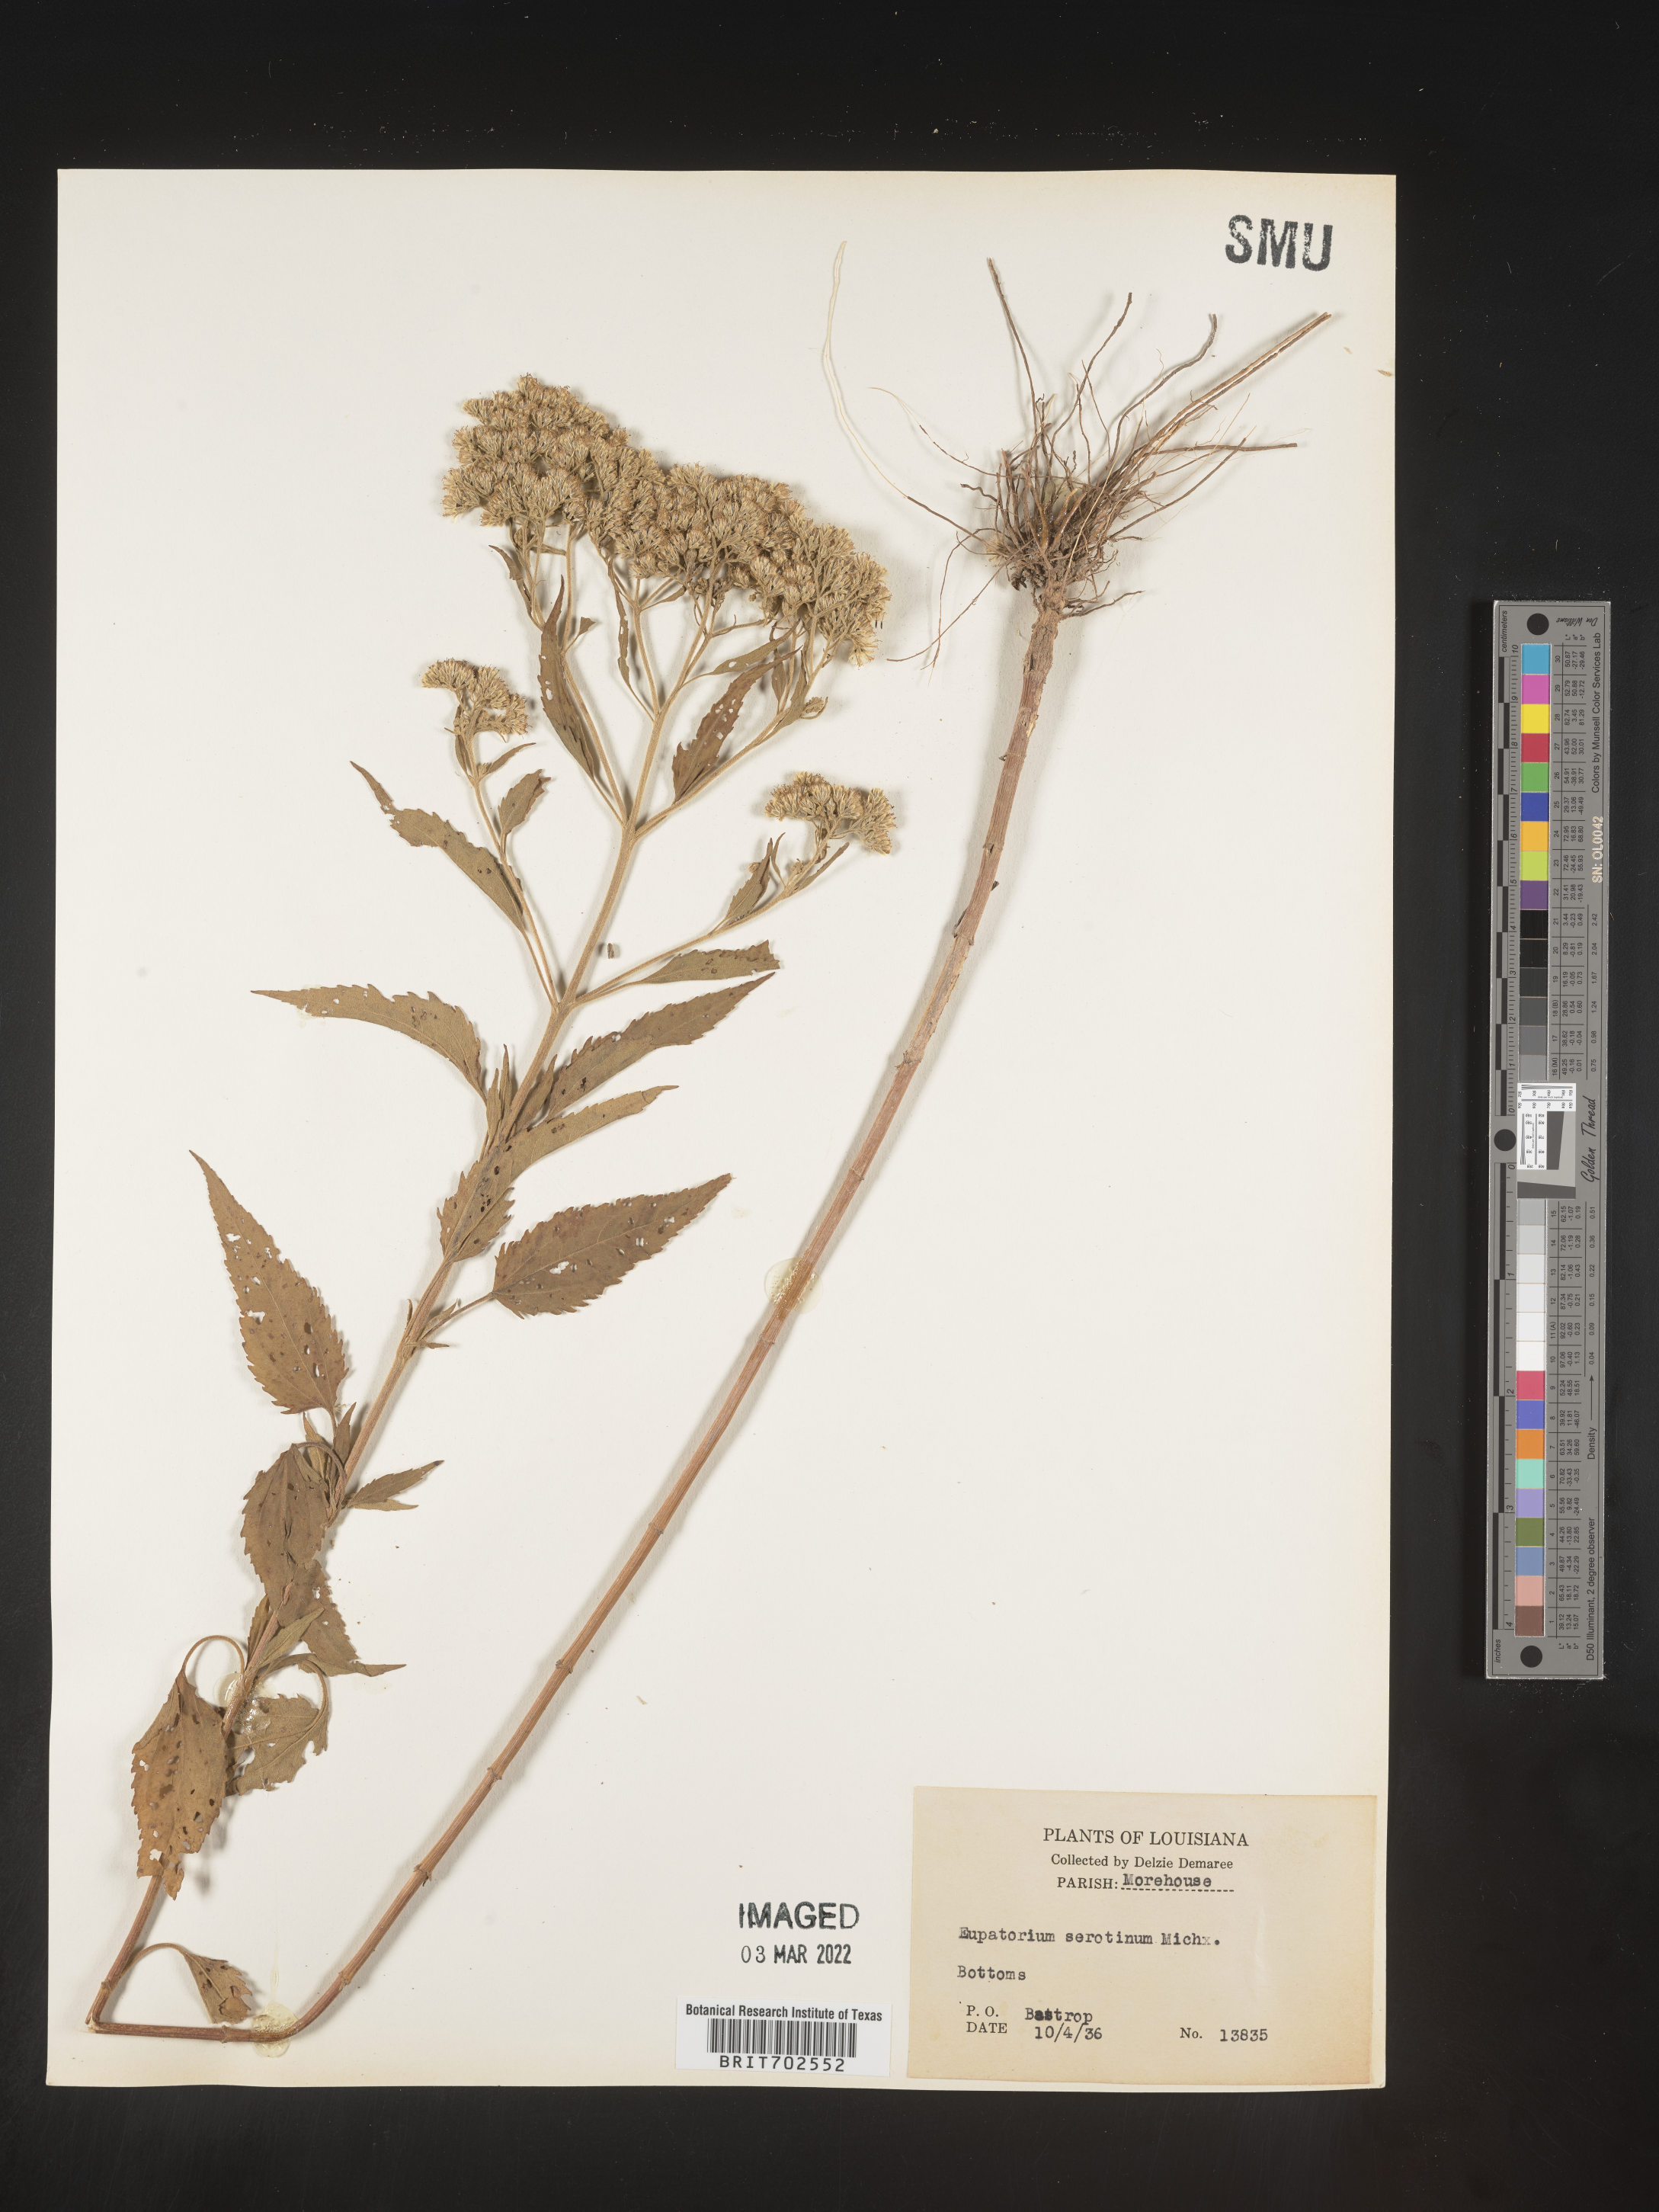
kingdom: Plantae
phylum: Tracheophyta
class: Magnoliopsida
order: Asterales
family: Asteraceae
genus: Eupatorium
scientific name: Eupatorium serotinum
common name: Late boneset
